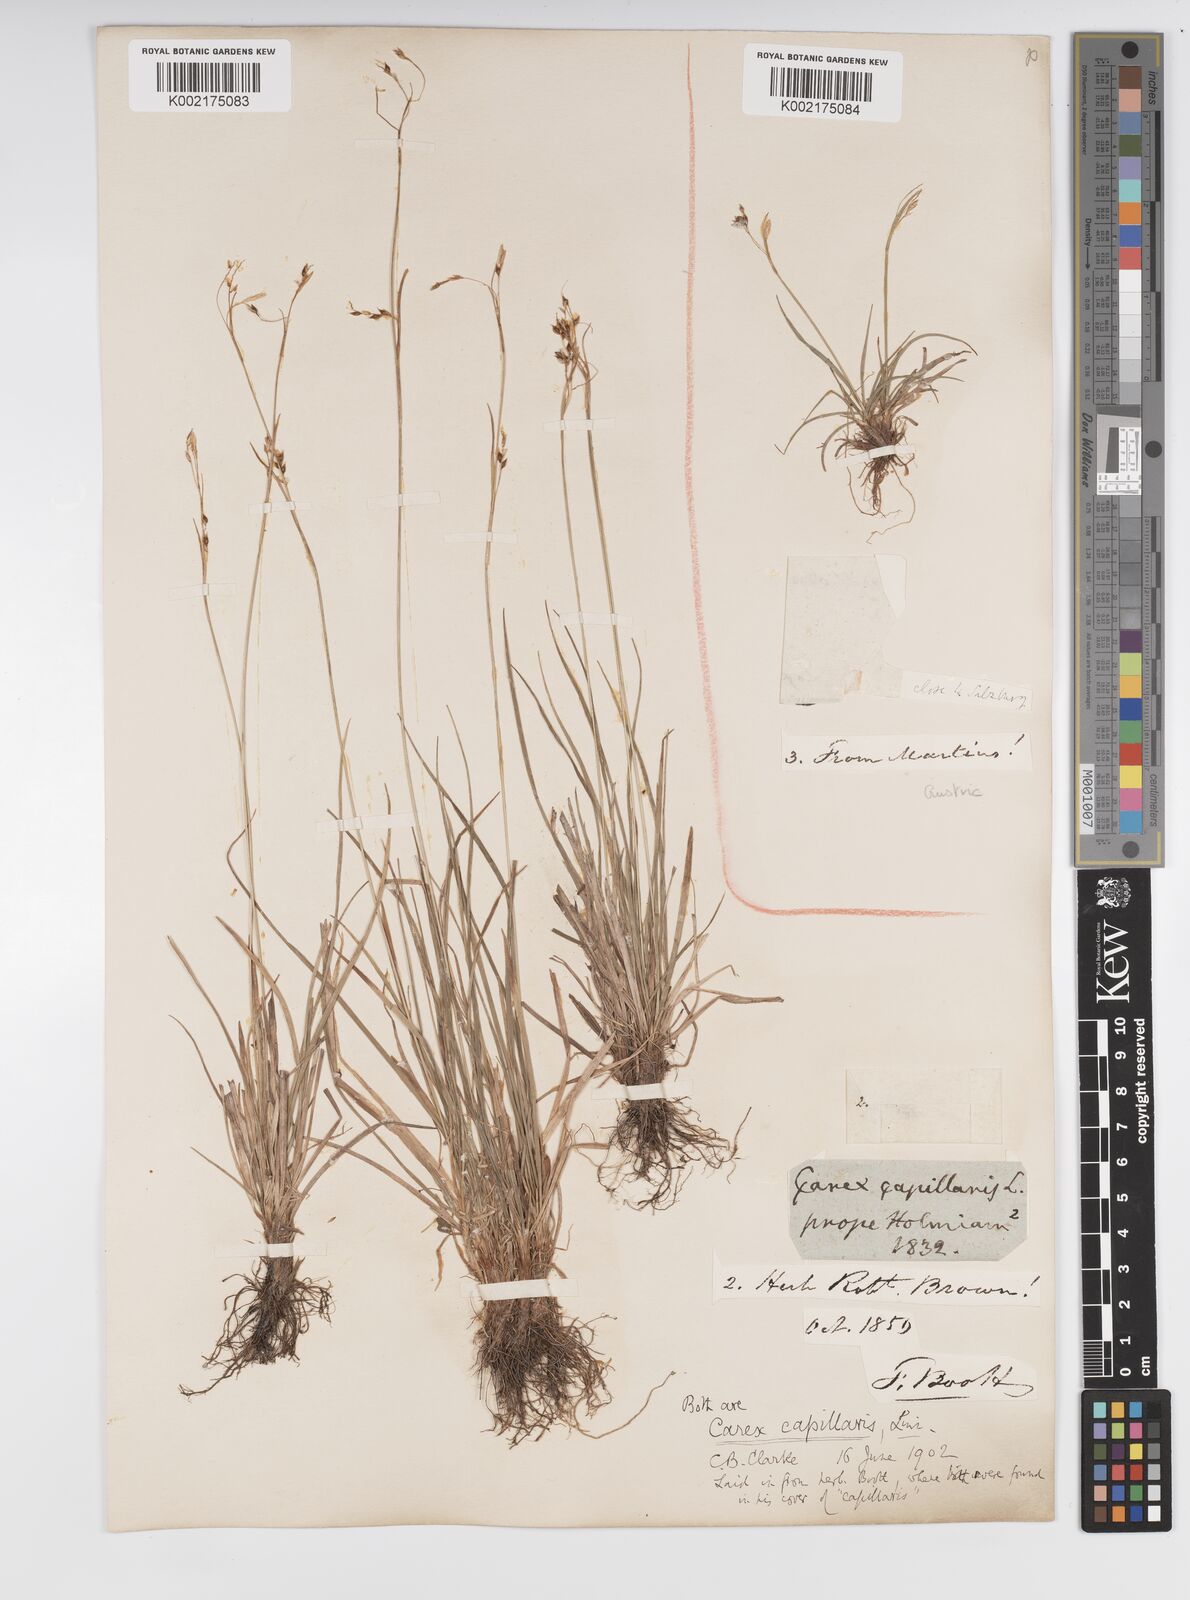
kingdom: Plantae
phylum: Tracheophyta
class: Liliopsida
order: Poales
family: Cyperaceae
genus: Carex
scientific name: Carex capillaris
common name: Hair sedge
